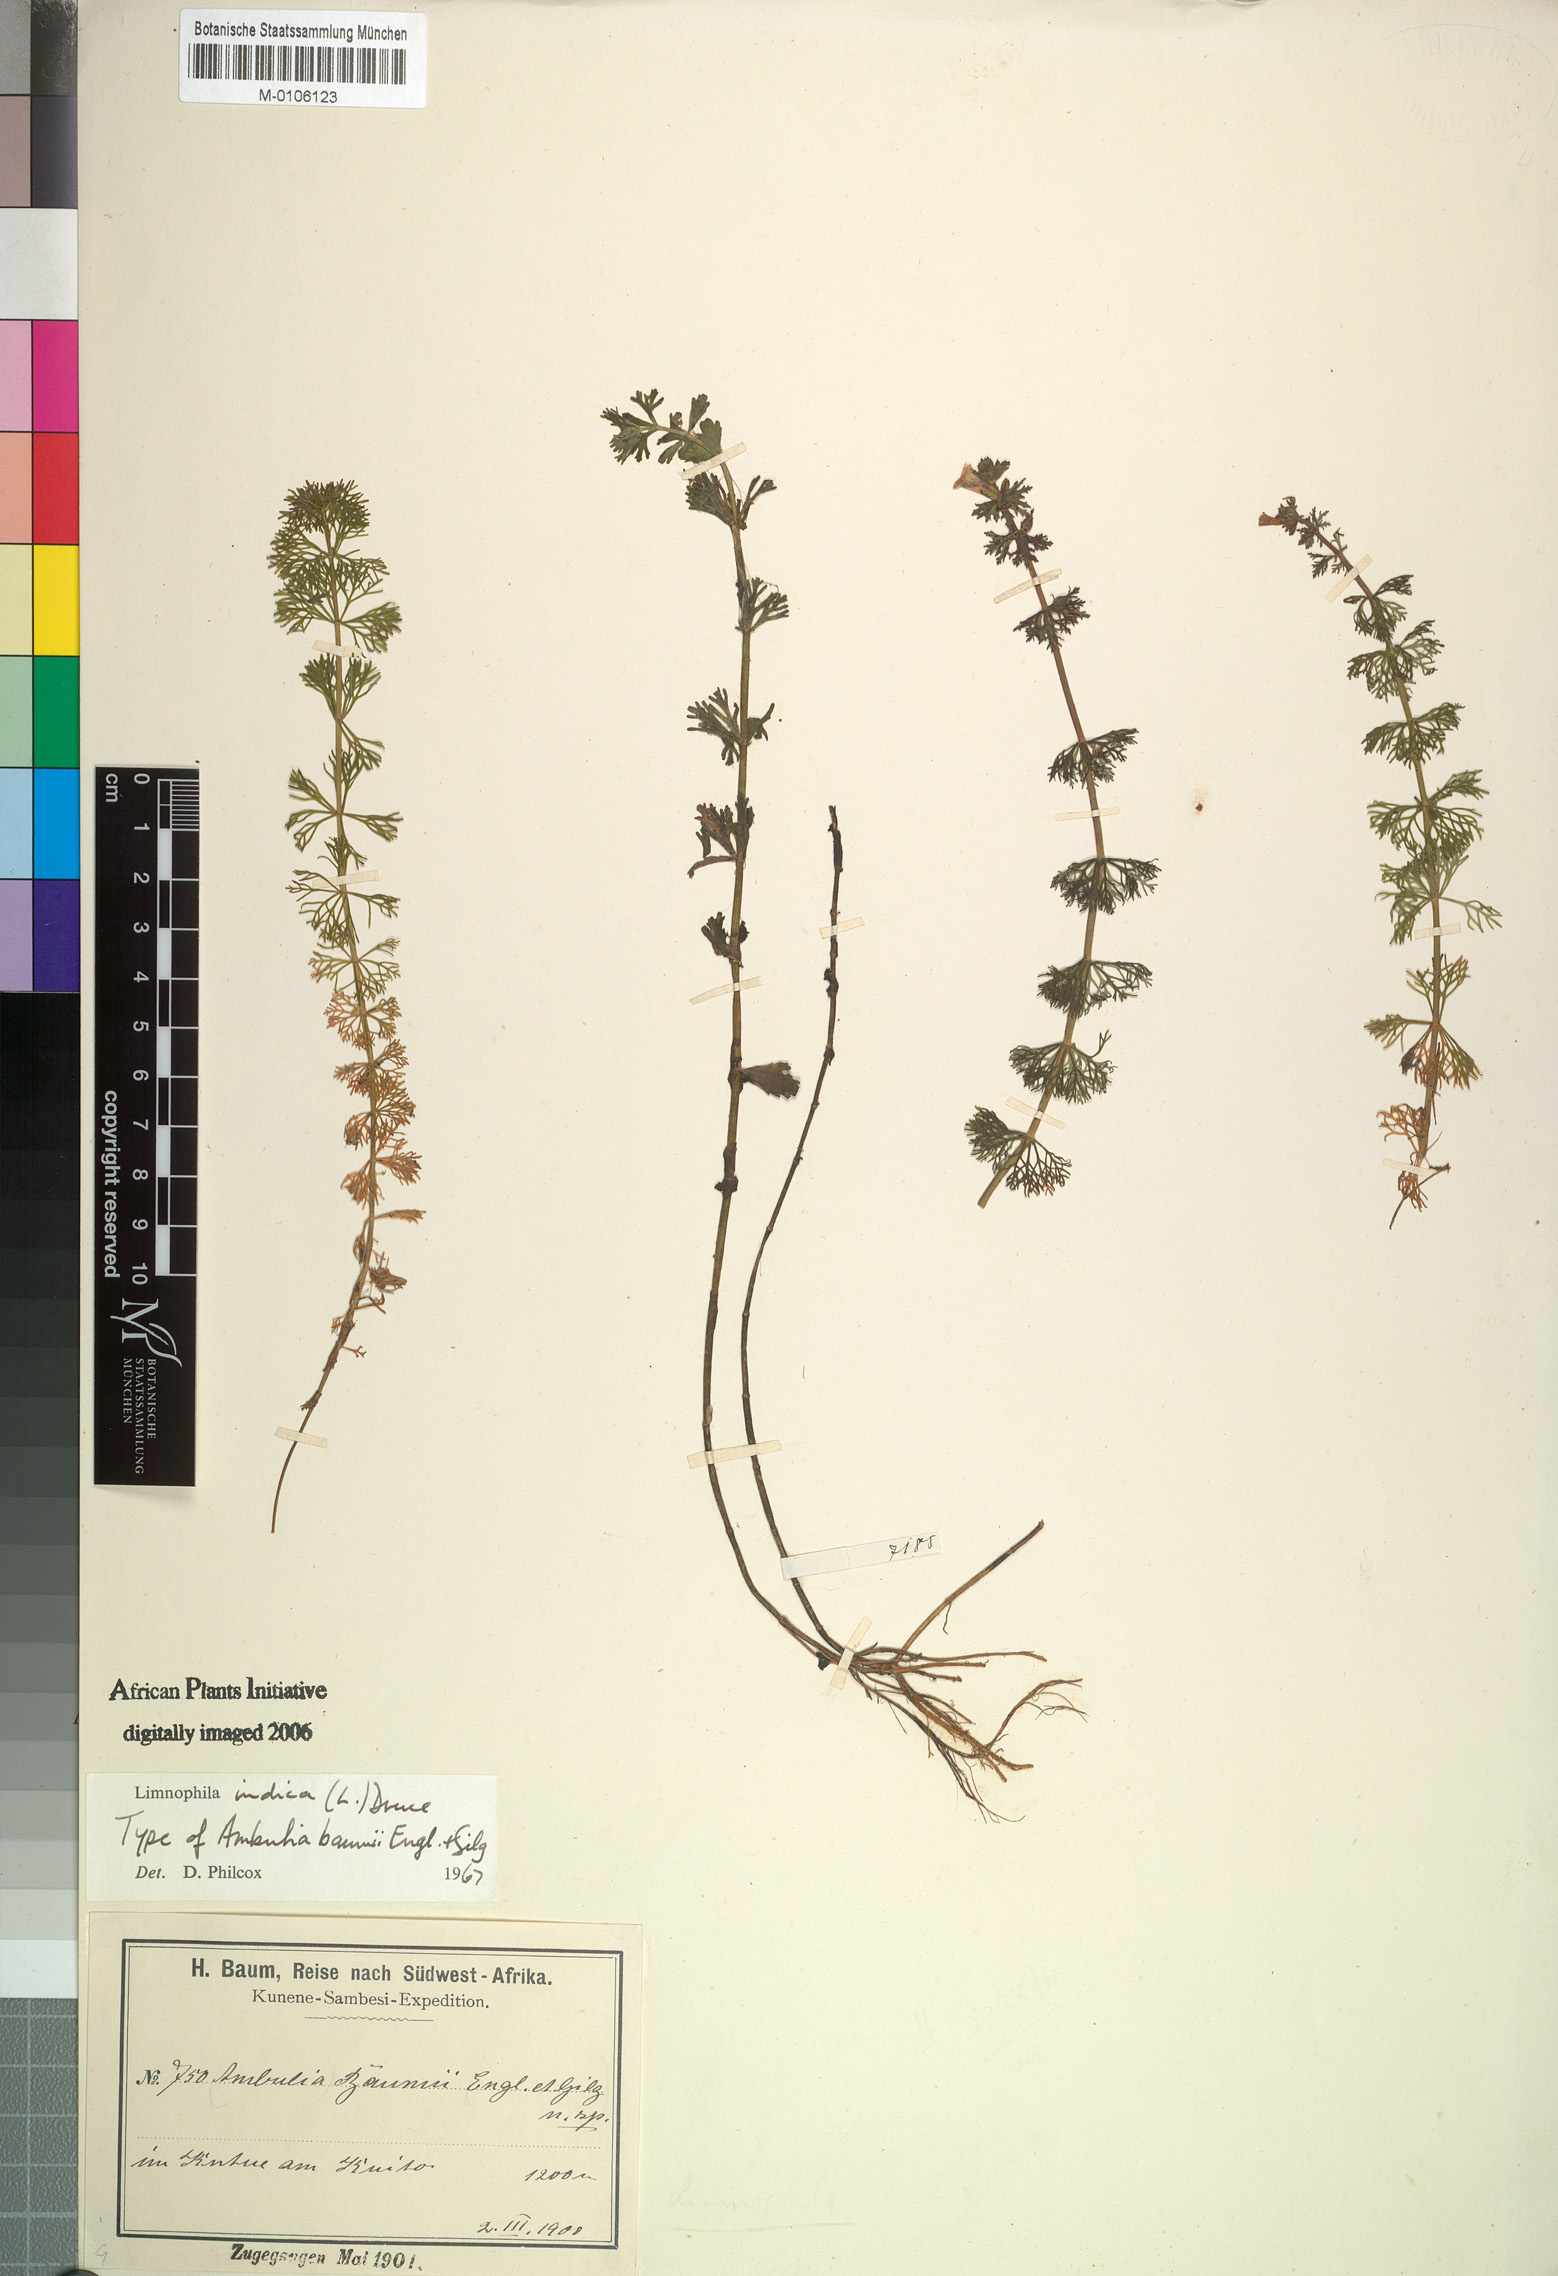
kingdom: Plantae
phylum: Tracheophyta
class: Magnoliopsida
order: Lamiales
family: Plantaginaceae
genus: Limnophila
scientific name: Limnophila indica
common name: Indian marshweed
